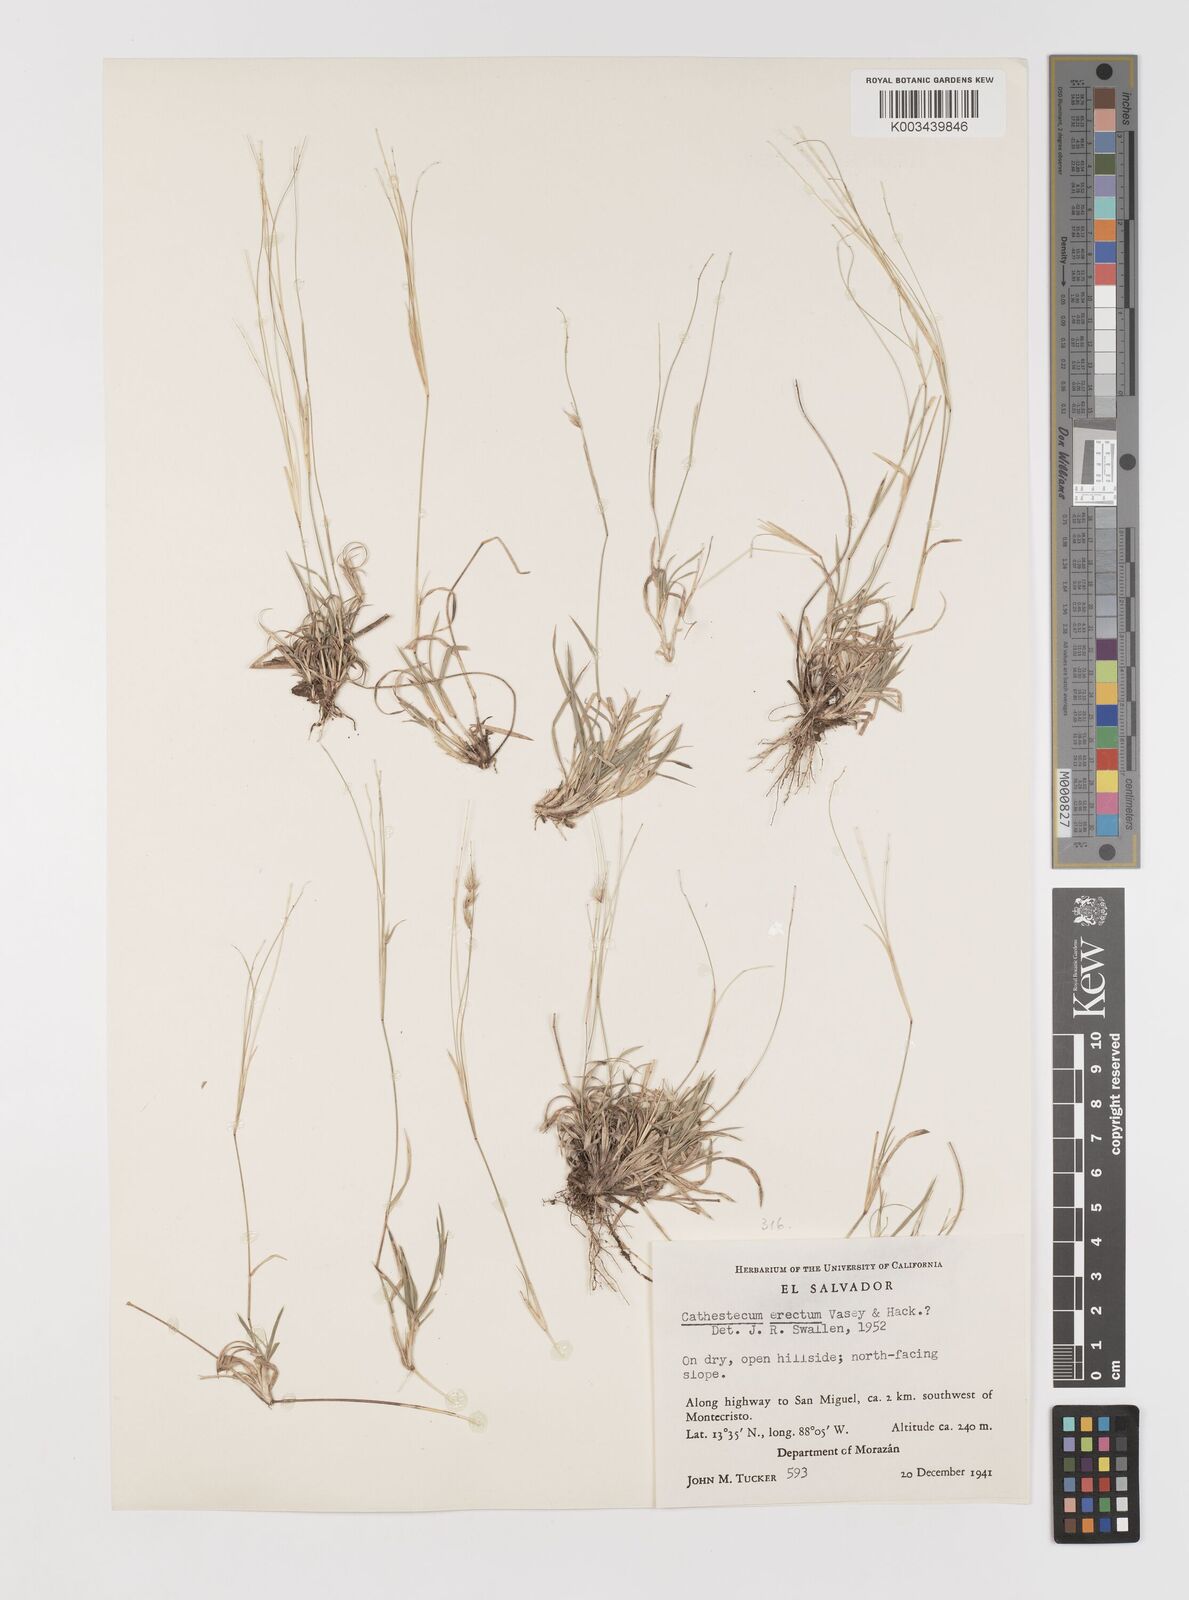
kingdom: Plantae
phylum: Tracheophyta
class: Liliopsida
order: Poales
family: Poaceae
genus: Bouteloua
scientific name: Bouteloua erecta
